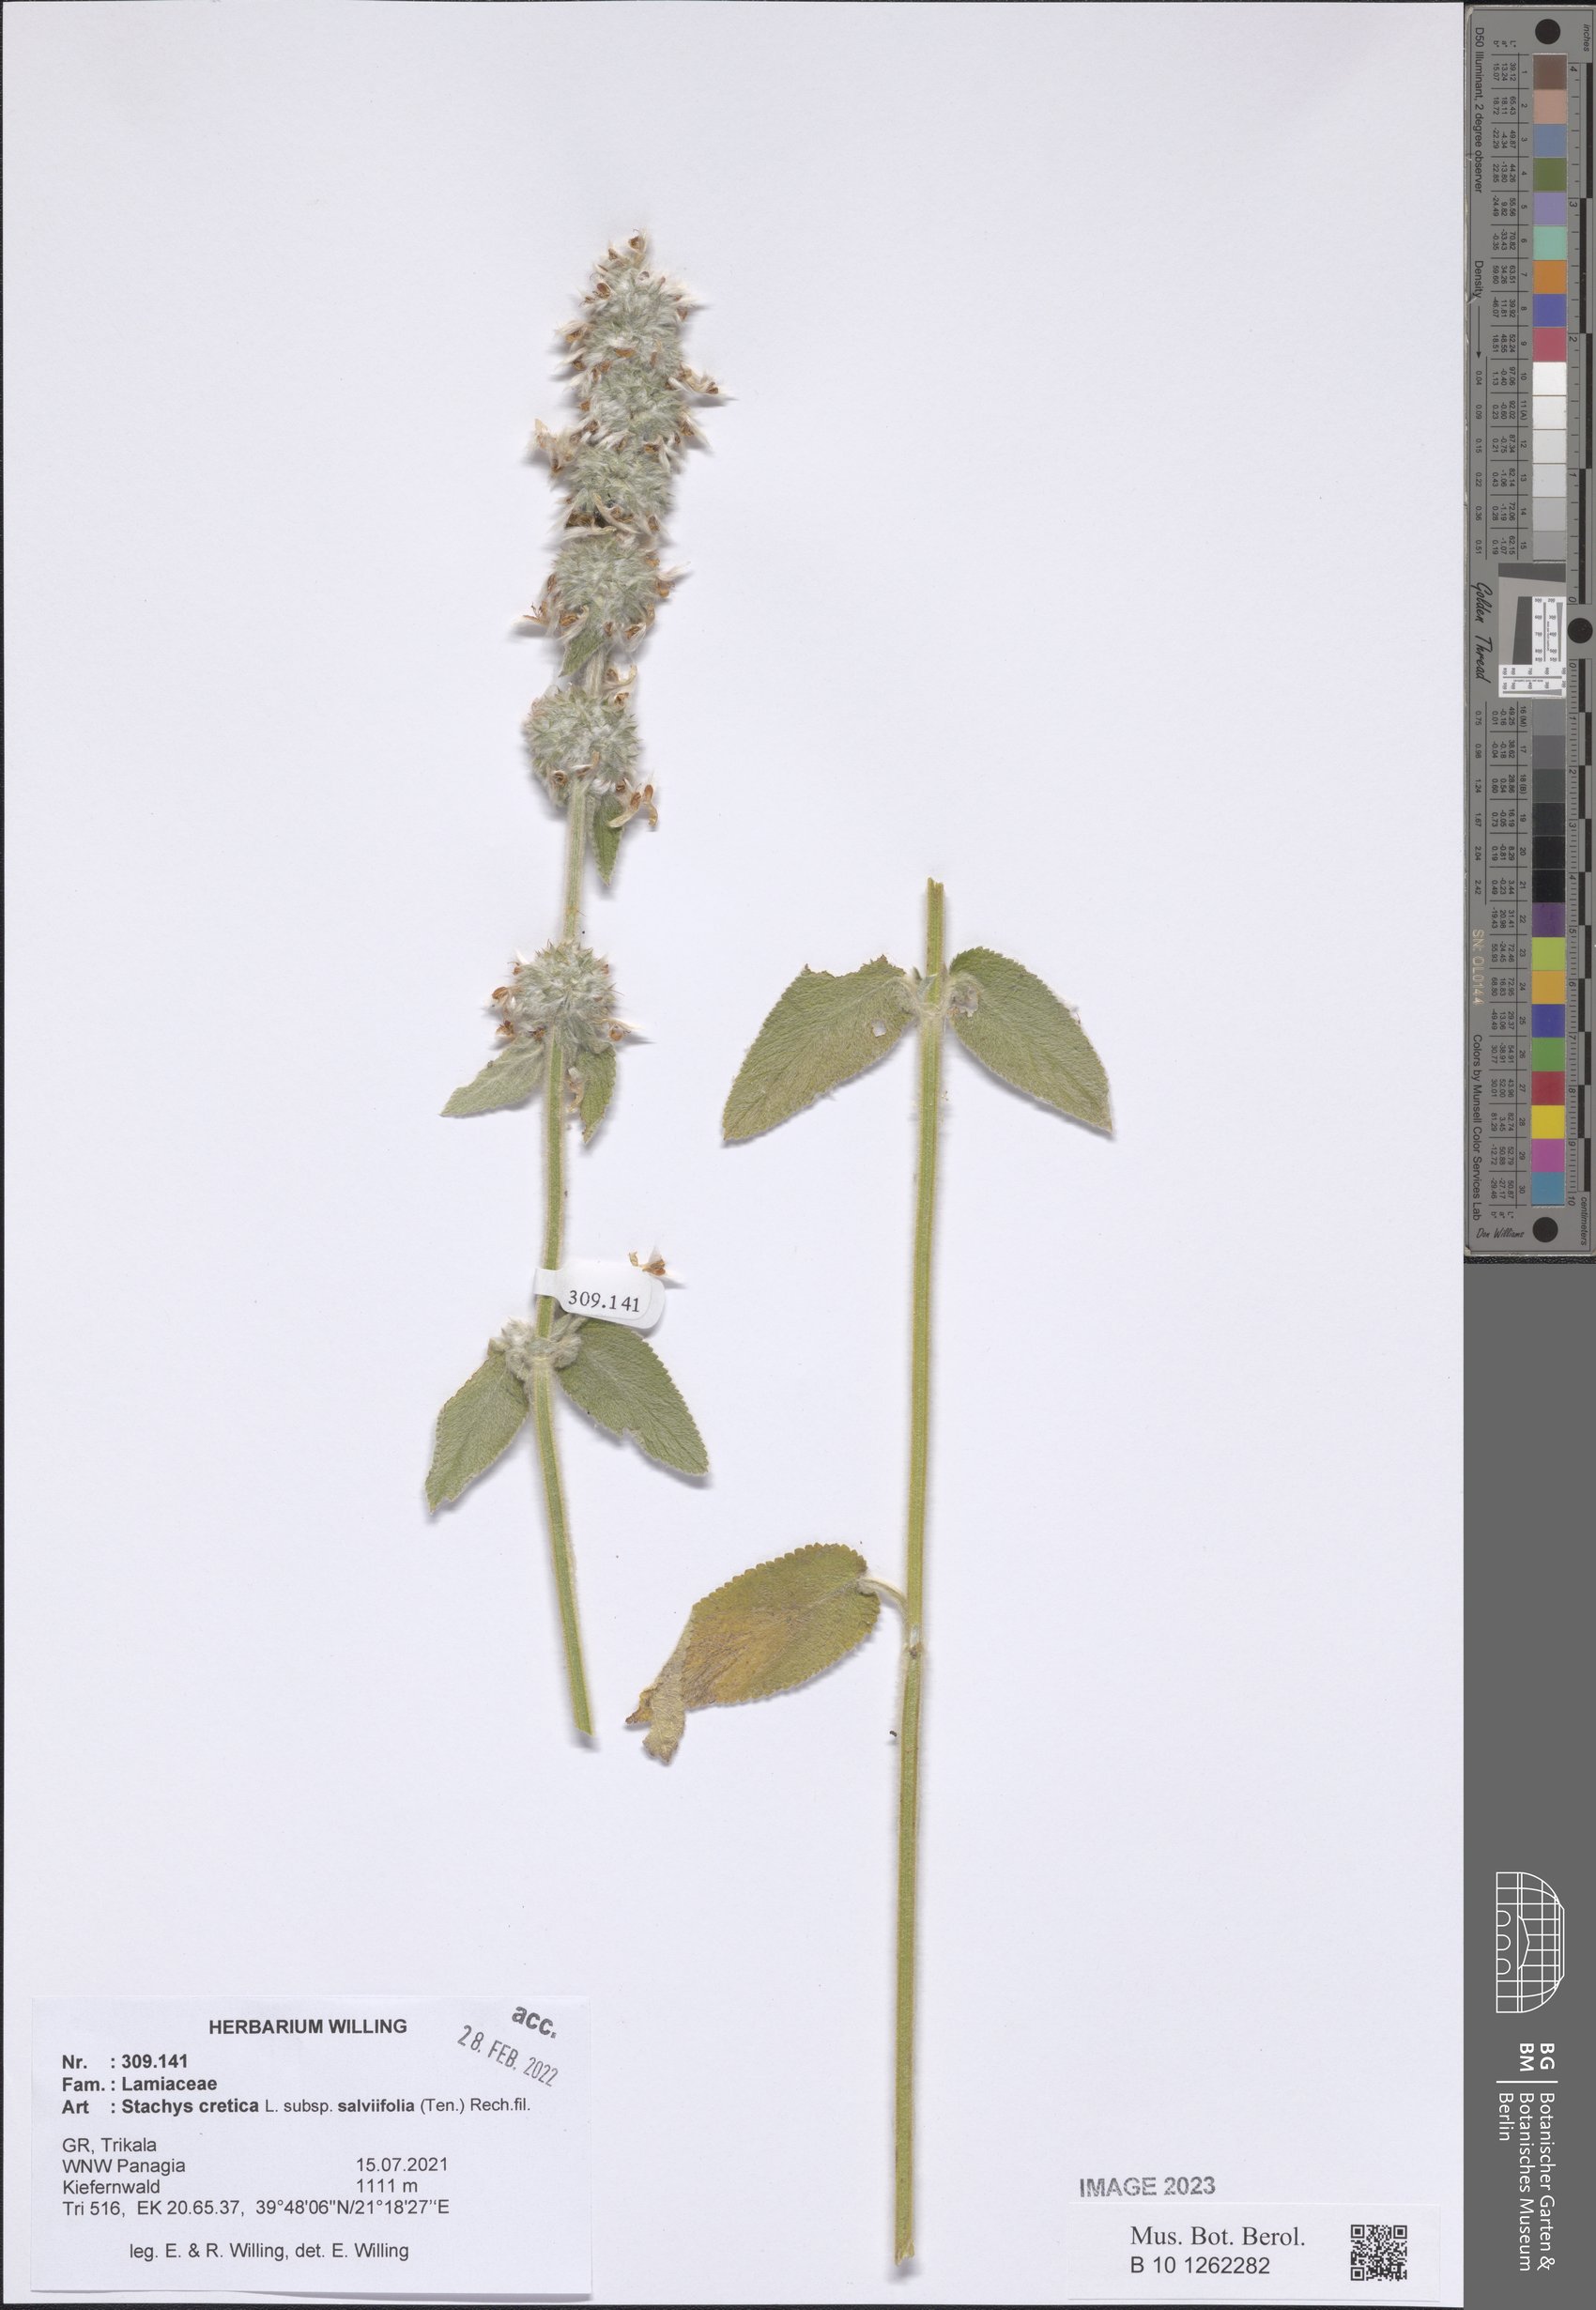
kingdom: Plantae
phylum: Tracheophyta
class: Magnoliopsida
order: Lamiales
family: Lamiaceae
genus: Stachys
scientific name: Stachys cretica
